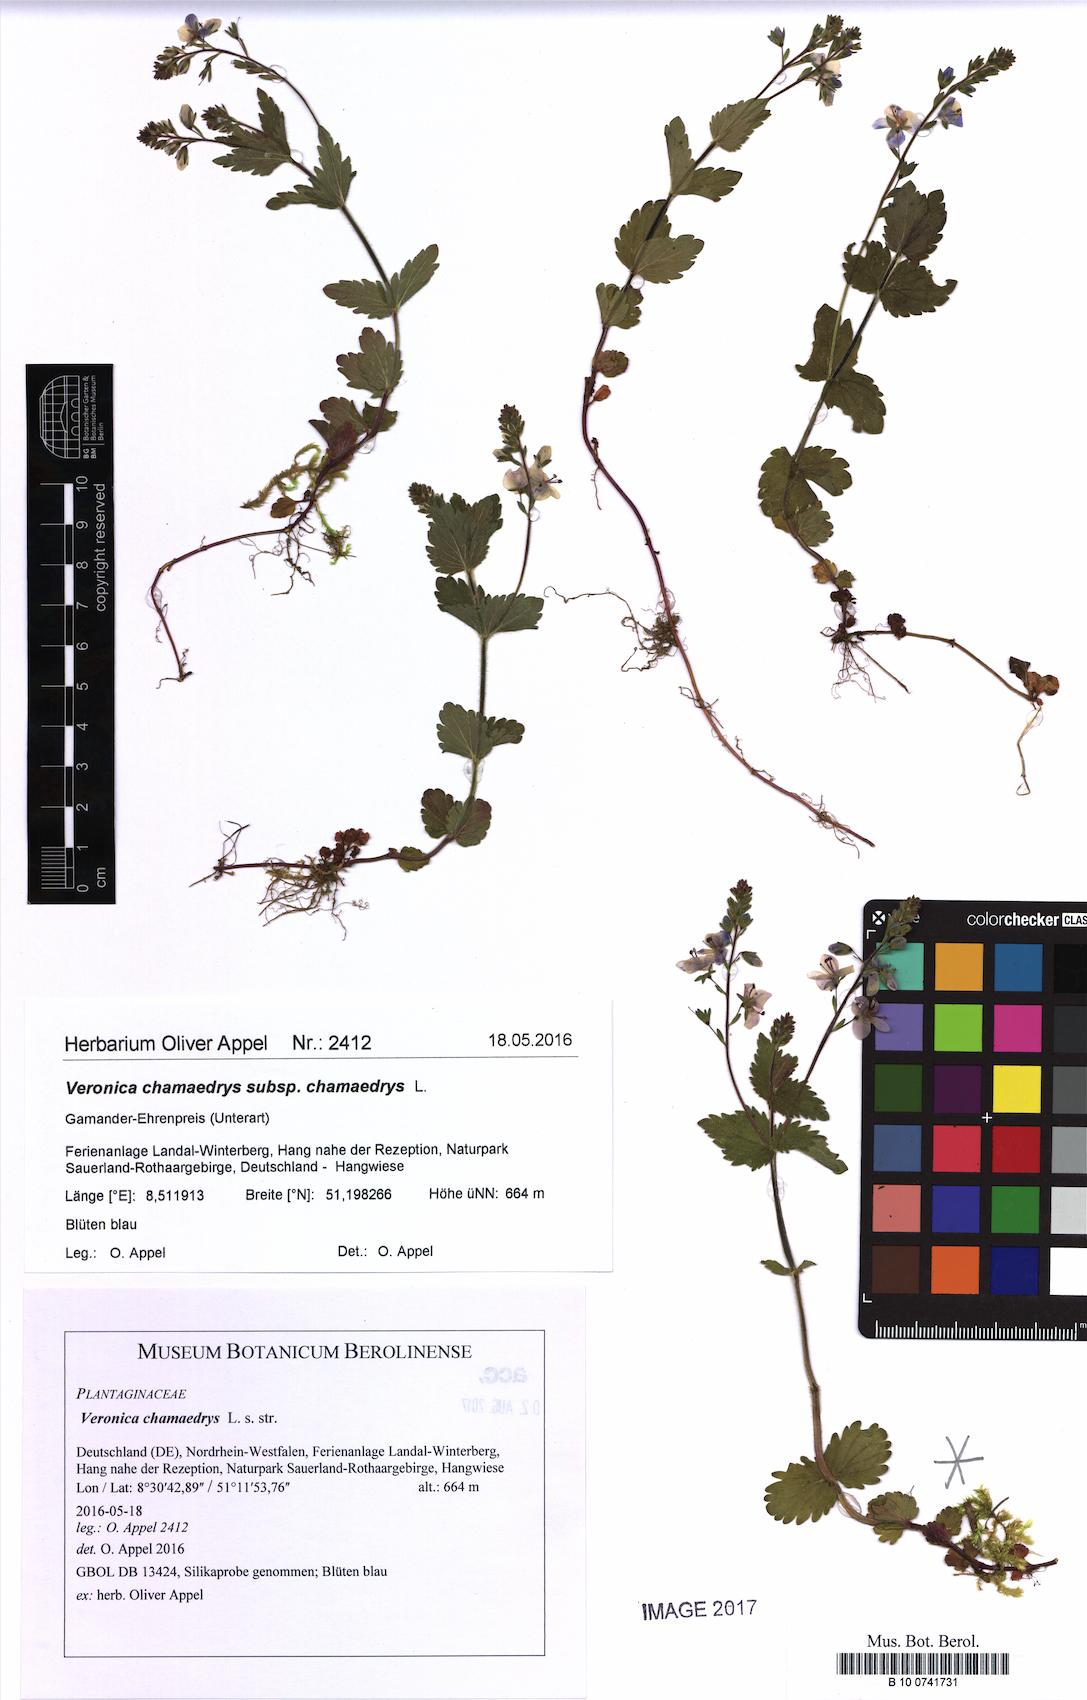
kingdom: Plantae
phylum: Tracheophyta
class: Magnoliopsida
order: Lamiales
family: Plantaginaceae
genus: Veronica
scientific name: Veronica chamaedrys
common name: Germander speedwell
